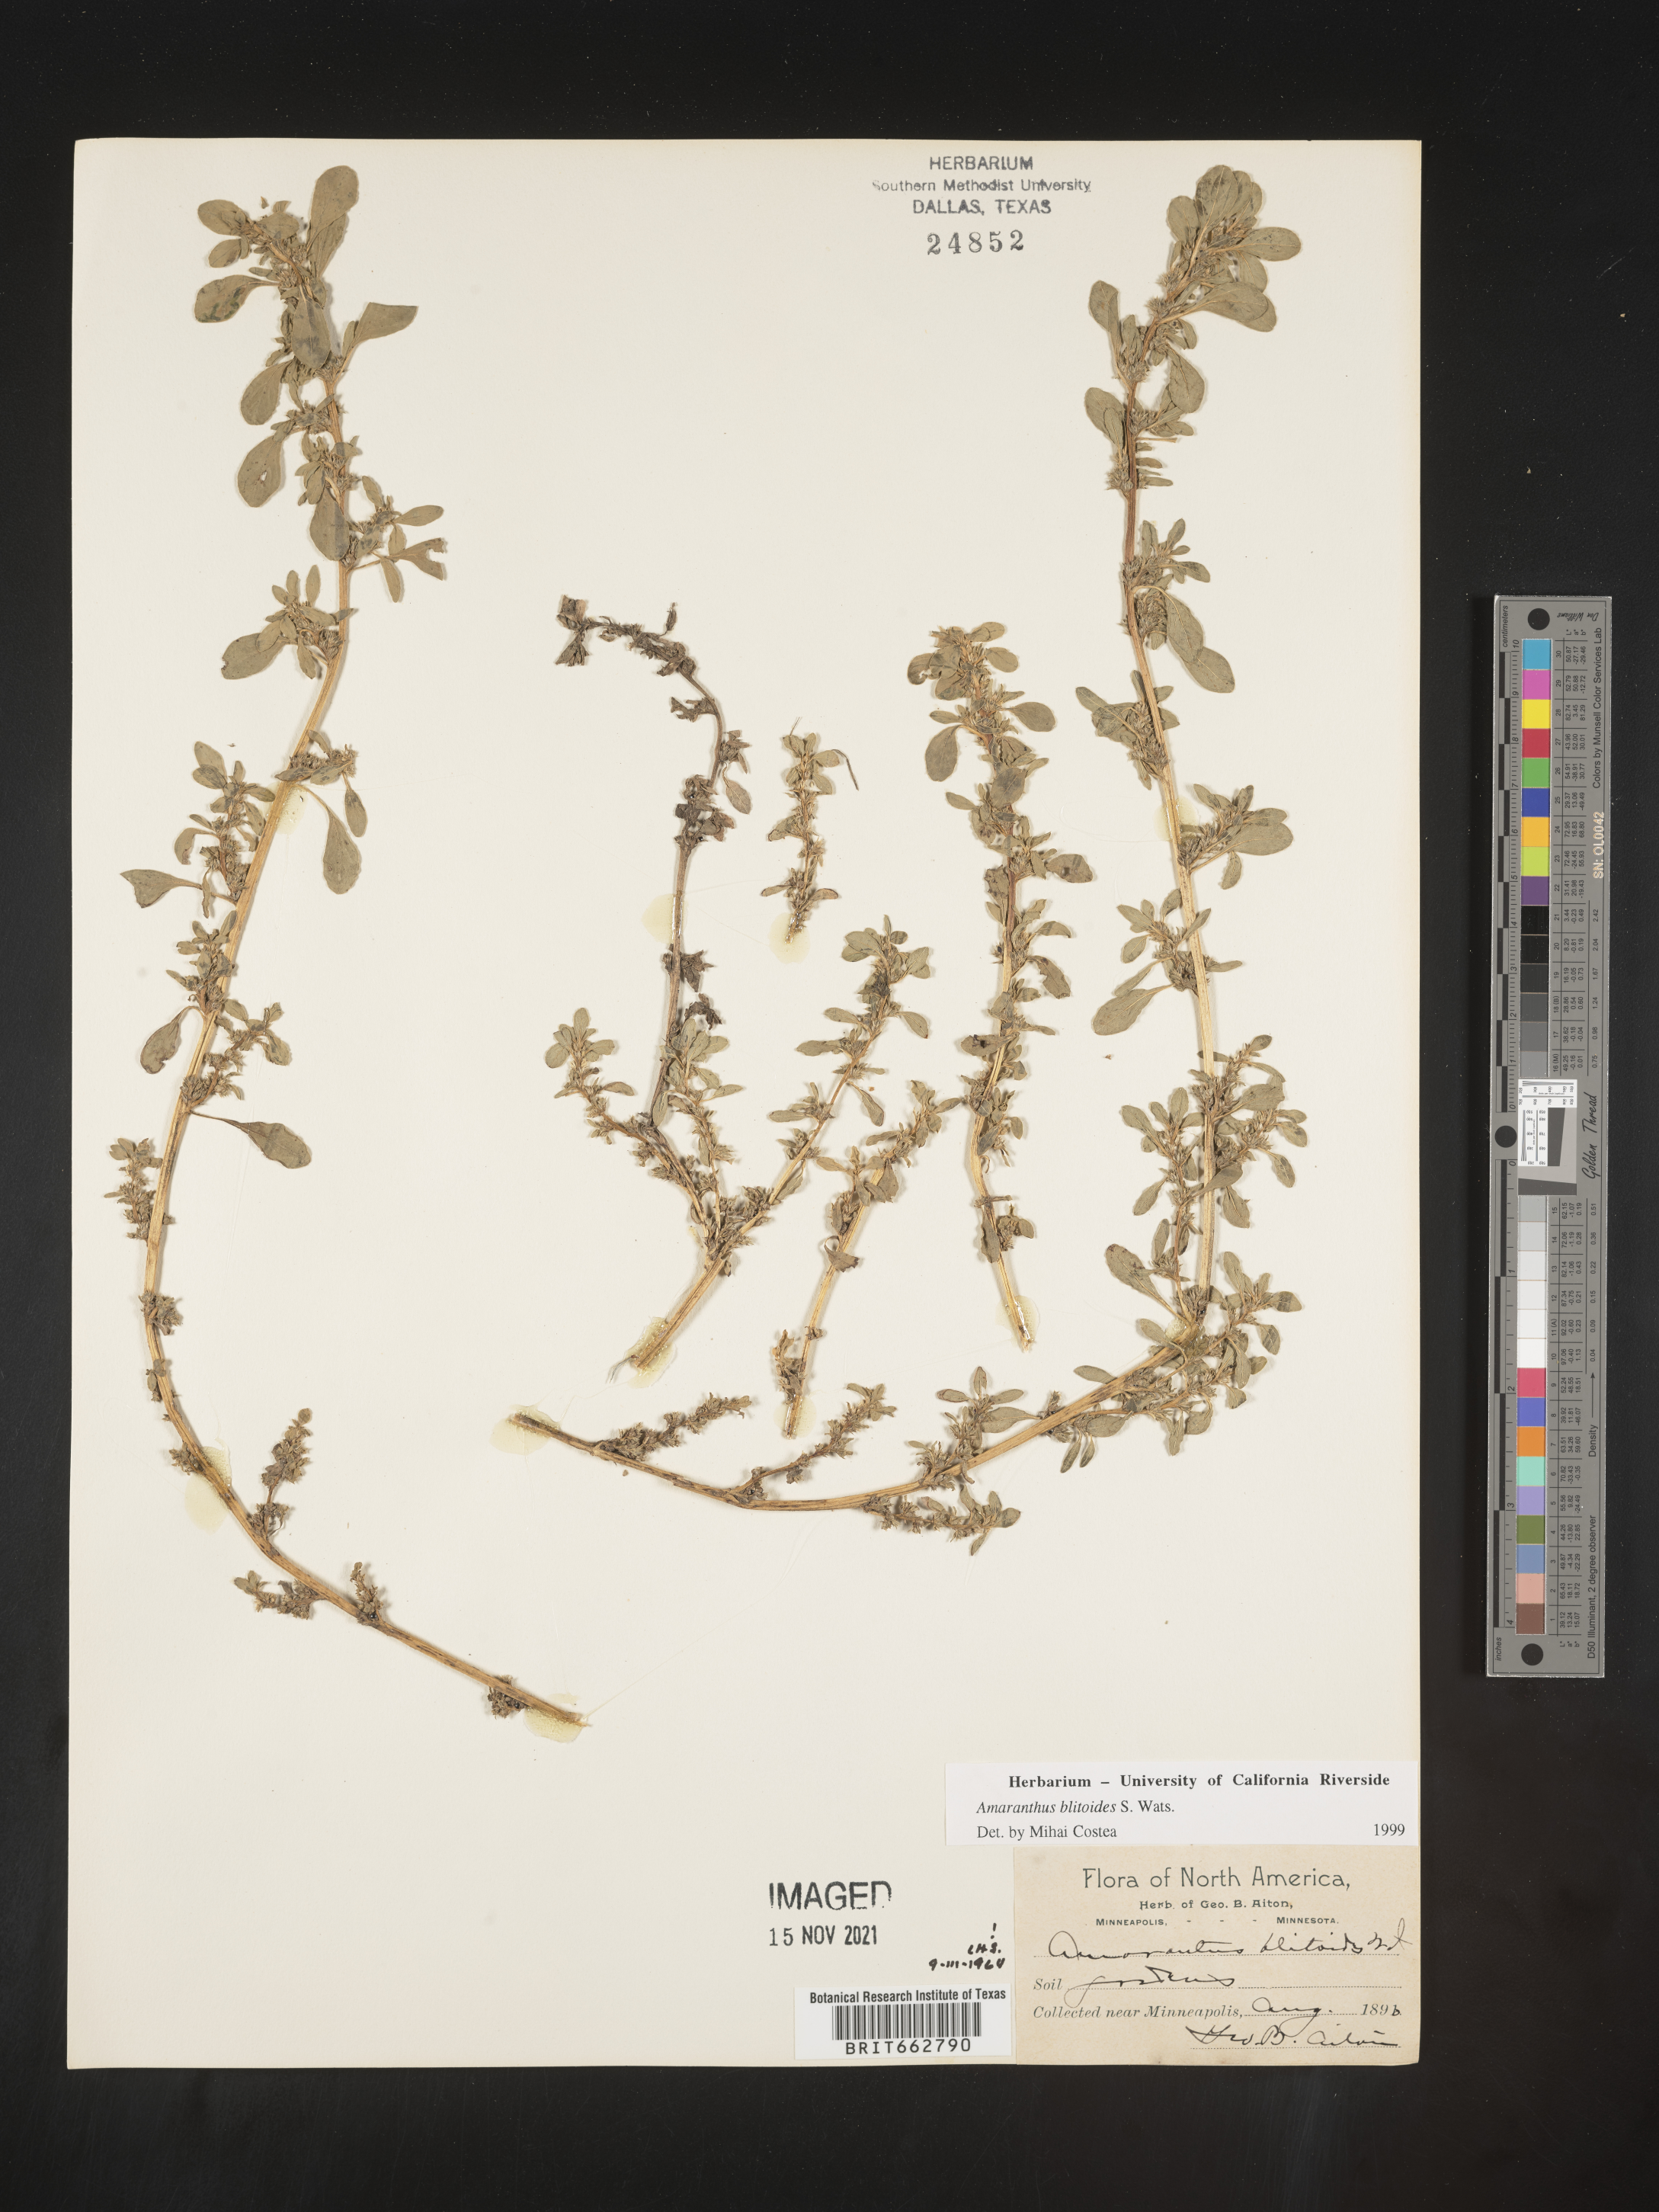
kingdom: Plantae
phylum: Tracheophyta
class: Magnoliopsida
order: Caryophyllales
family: Amaranthaceae
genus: Amaranthus
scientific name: Amaranthus blitoides
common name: Prostrate pigweed
